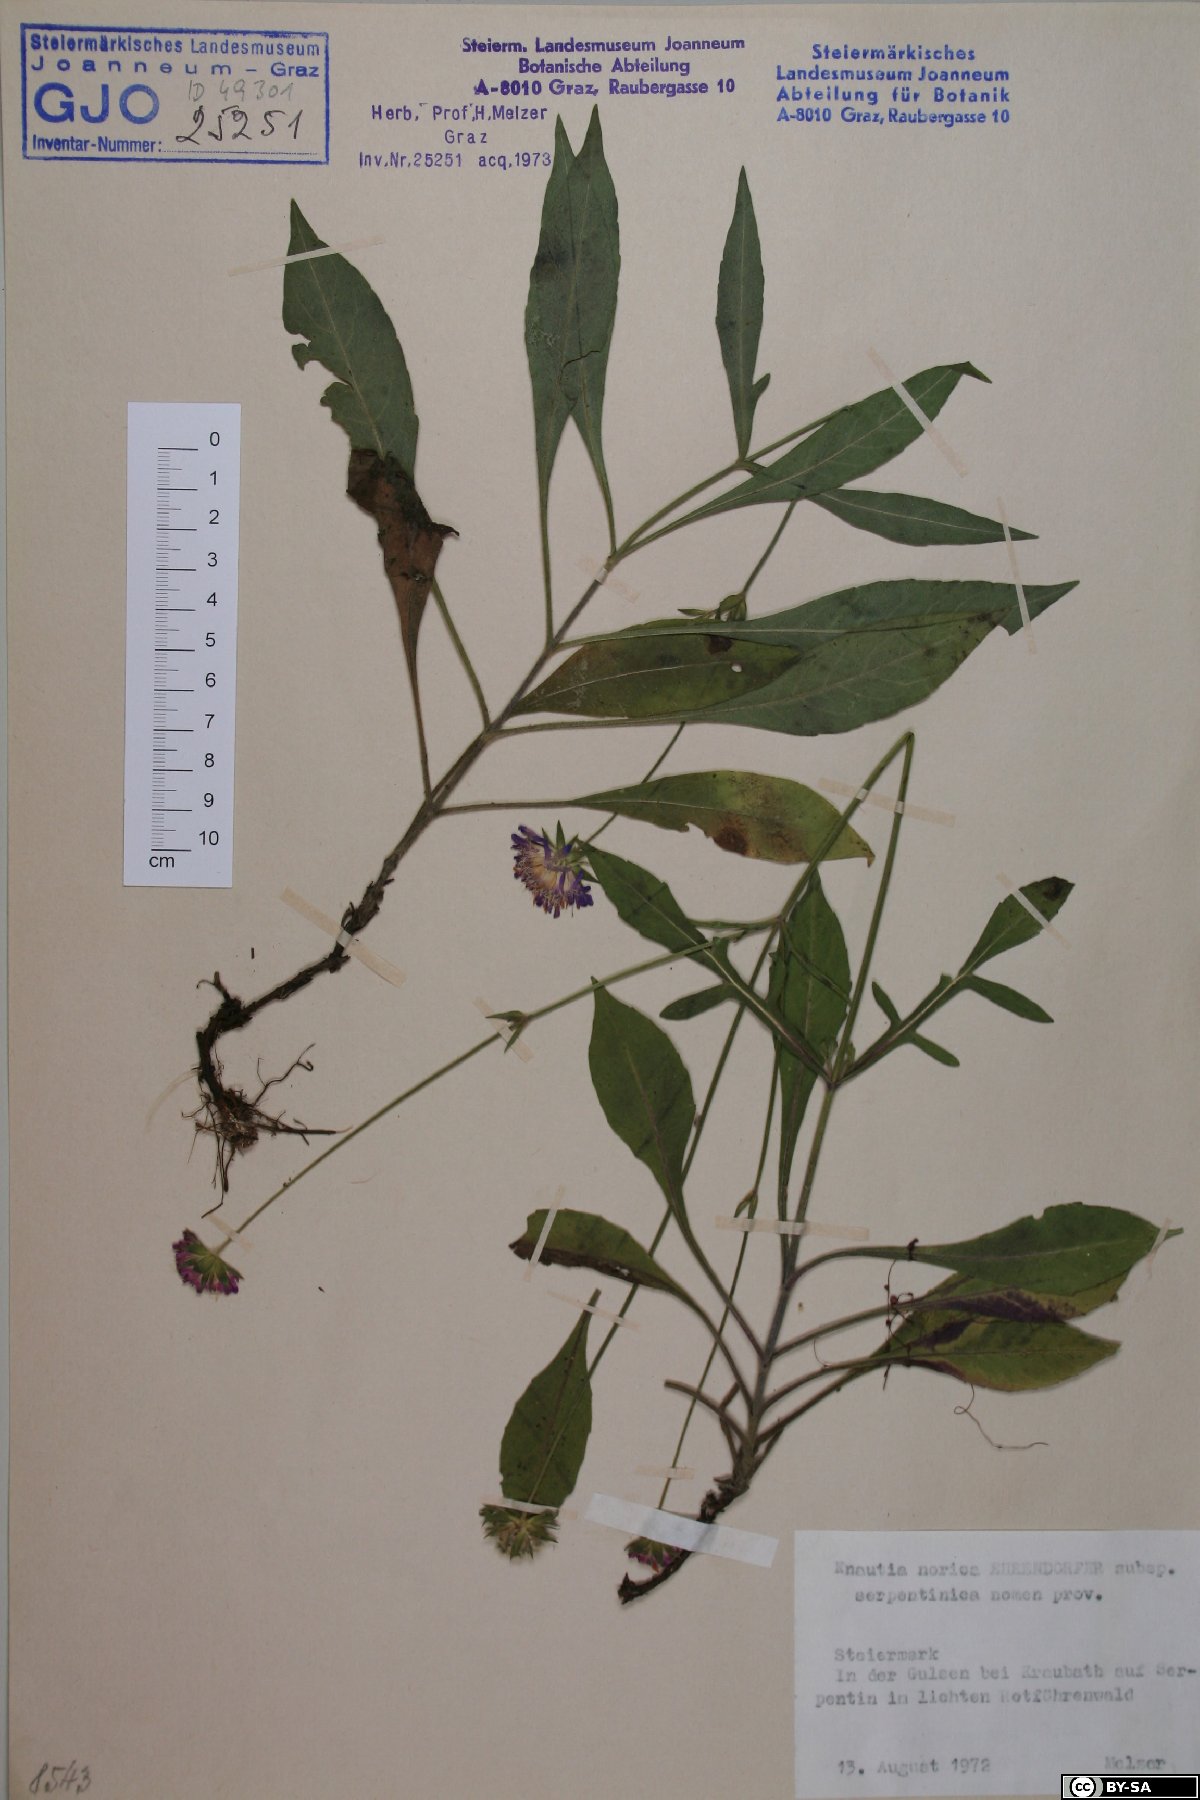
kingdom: Plantae
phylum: Tracheophyta
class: Magnoliopsida
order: Dipsacales
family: Caprifoliaceae
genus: Knautia
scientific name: Knautia norica
